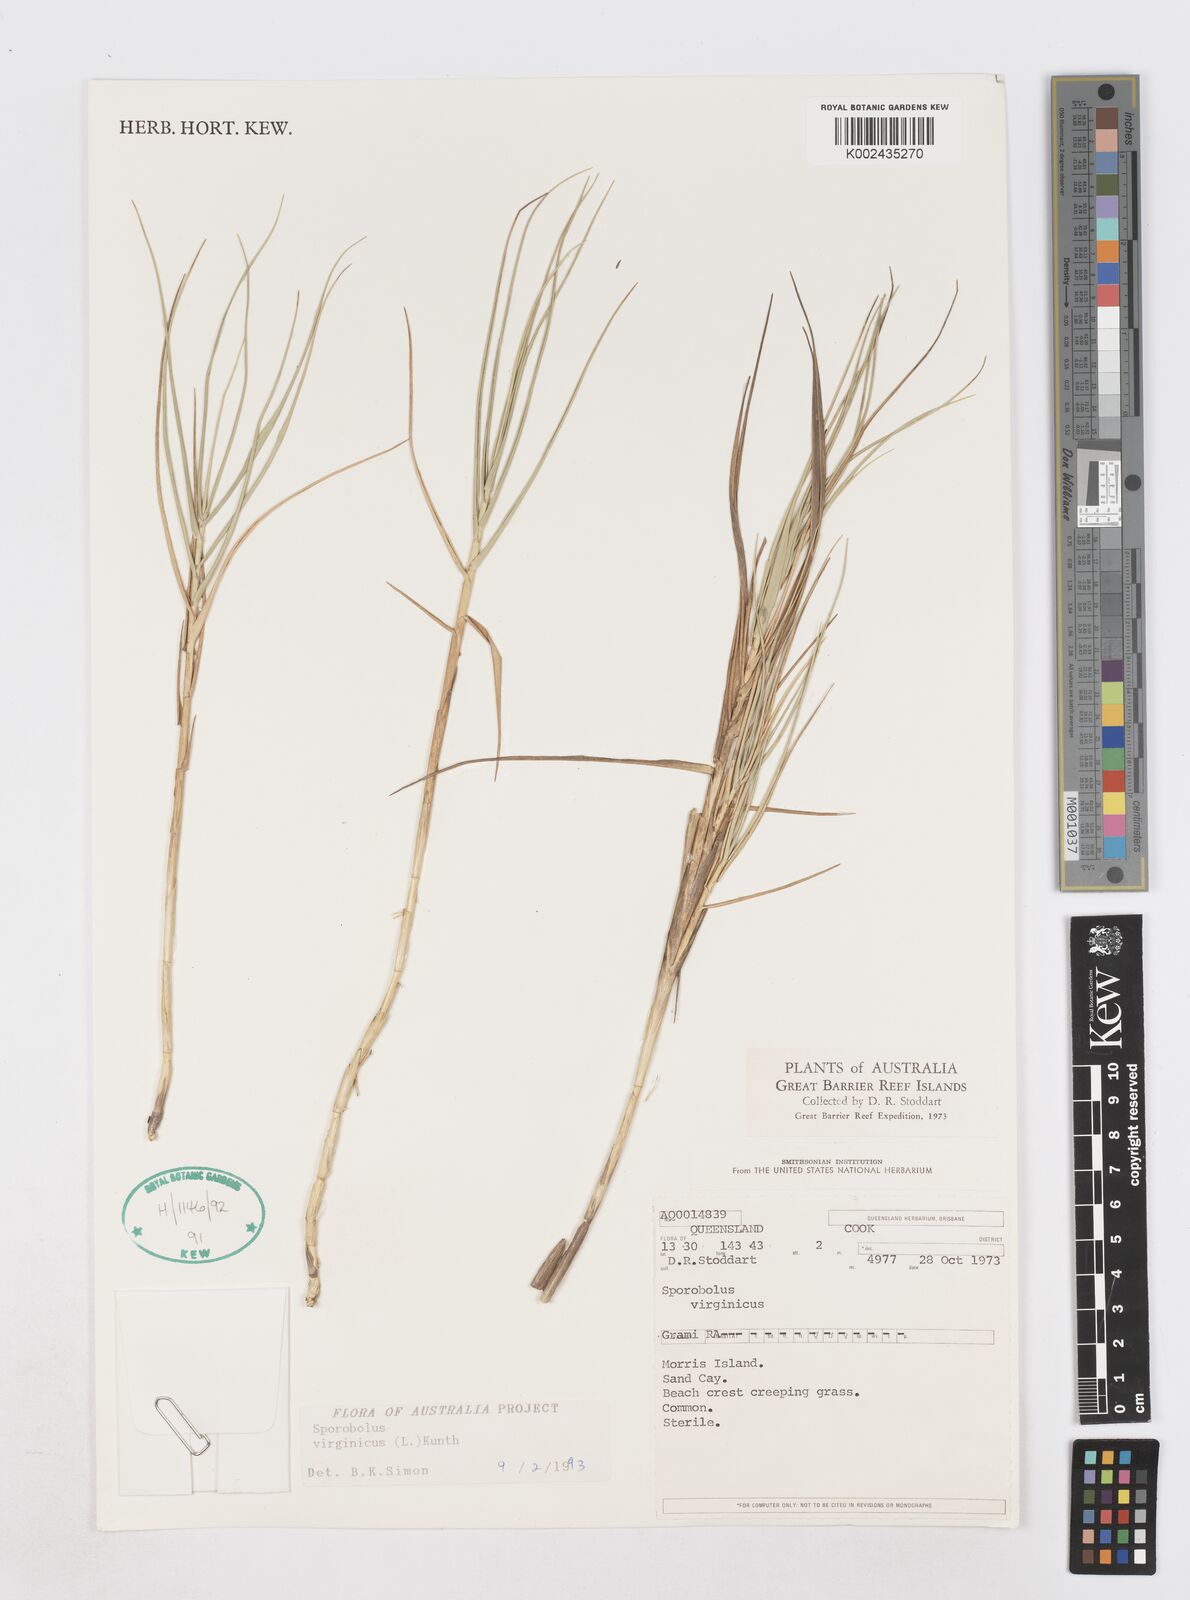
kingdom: Plantae
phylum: Tracheophyta
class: Liliopsida
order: Poales
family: Poaceae
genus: Sporobolus
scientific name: Sporobolus virginicus
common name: Beach dropseed
